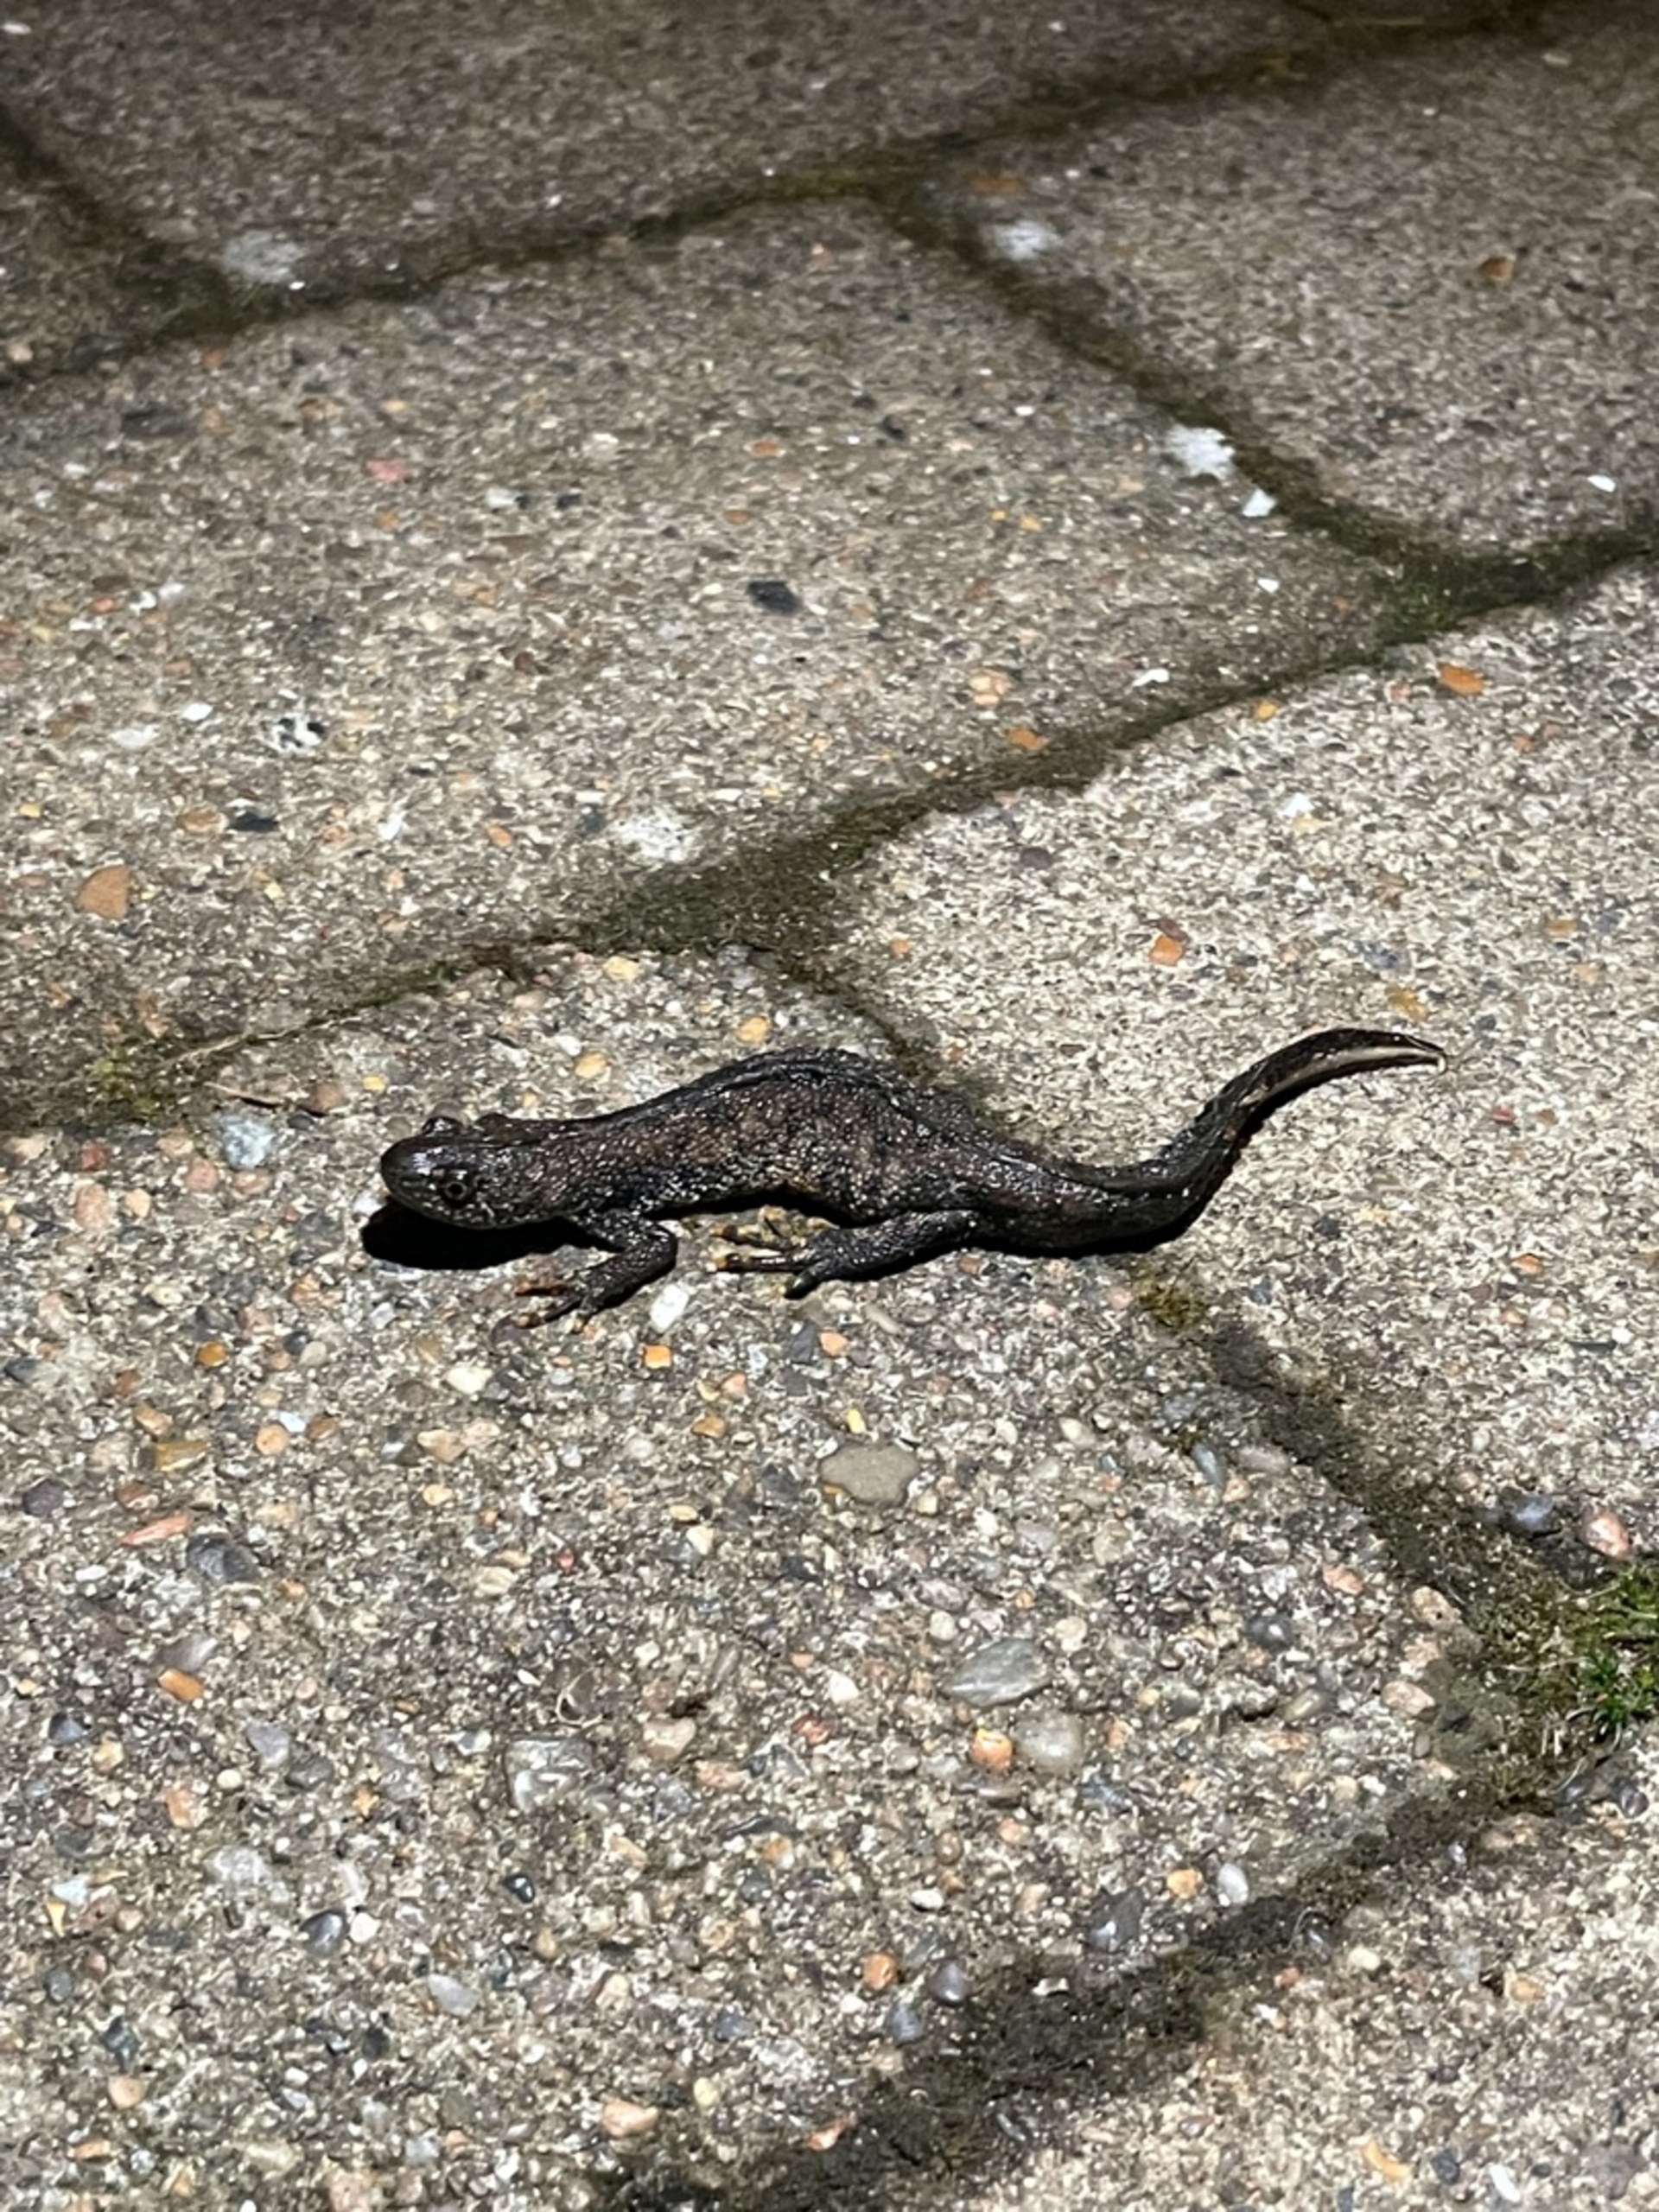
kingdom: Animalia
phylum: Chordata
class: Amphibia
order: Caudata
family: Salamandridae
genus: Triturus
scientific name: Triturus cristatus
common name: Stor vandsalamander
